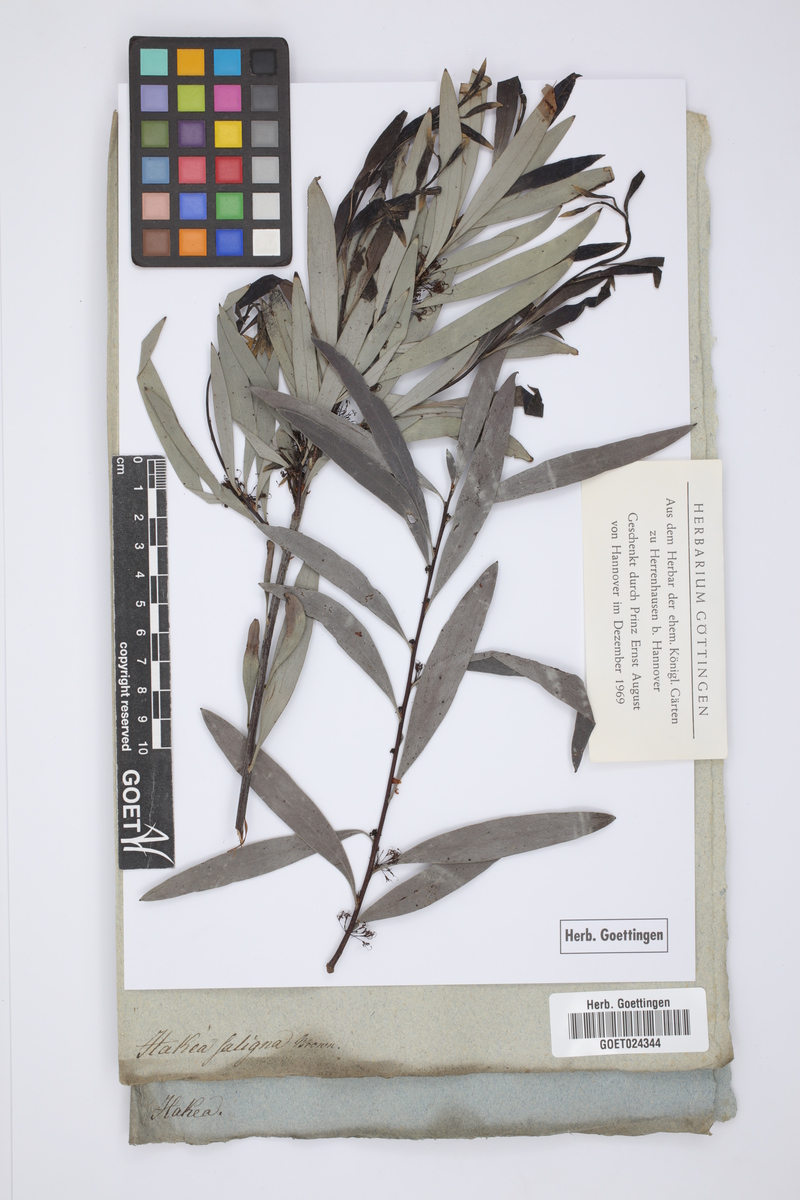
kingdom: Plantae
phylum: Tracheophyta
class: Magnoliopsida
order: Proteales
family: Proteaceae
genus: Hakea
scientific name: Hakea salicifolia
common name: Willow hakea
